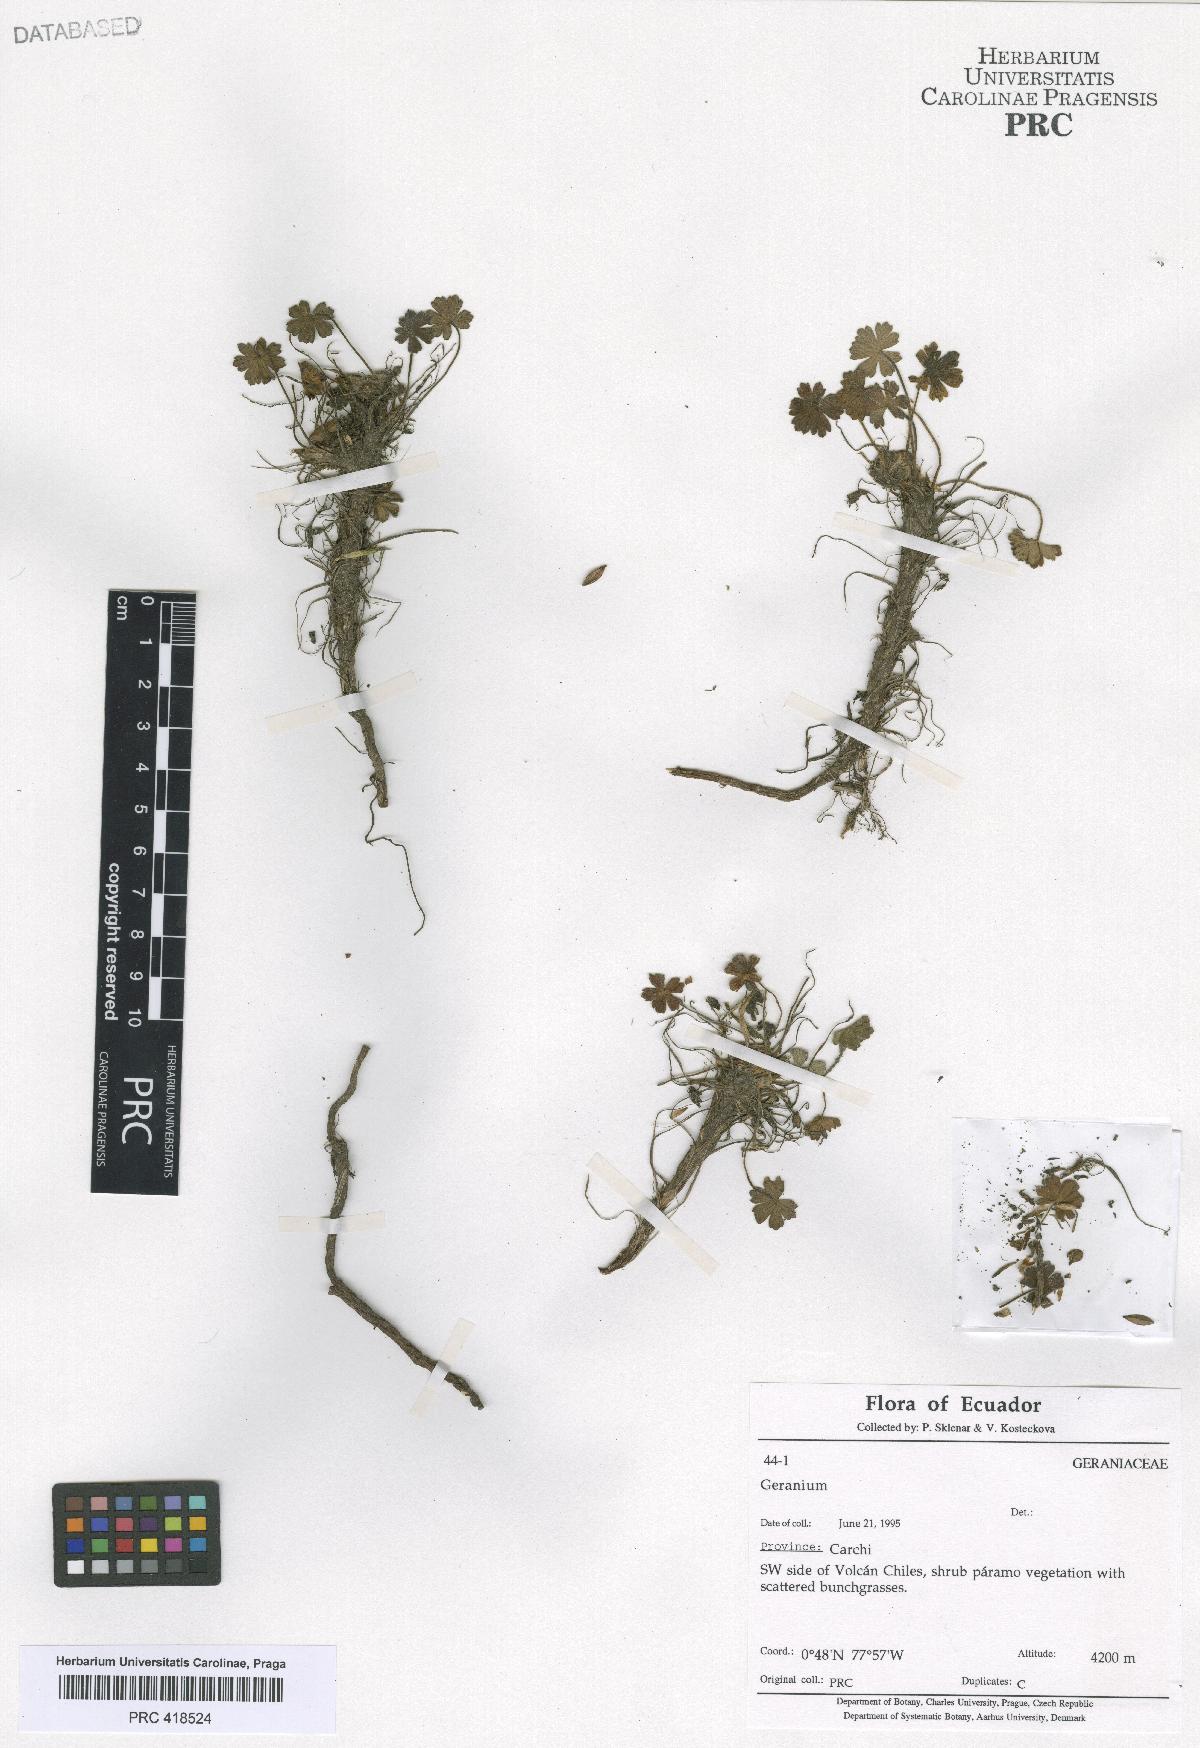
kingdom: Plantae
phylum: Tracheophyta
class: Magnoliopsida
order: Geraniales
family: Geraniaceae
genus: Geranium
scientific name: Geranium stramineum
